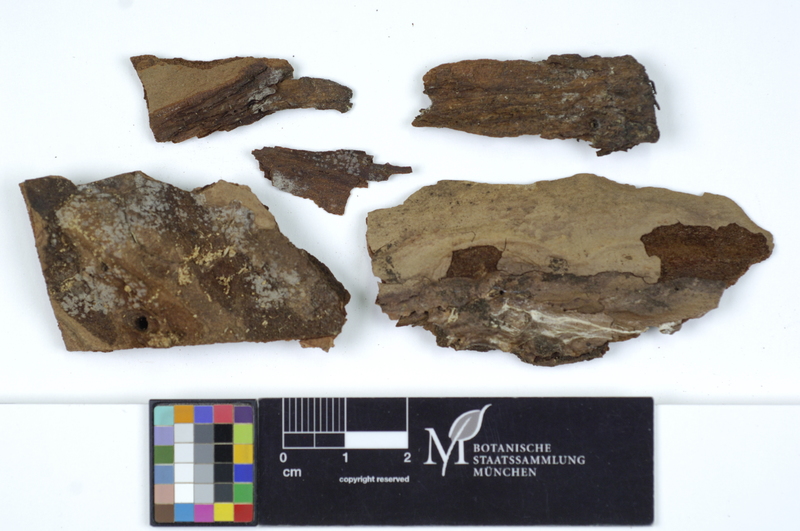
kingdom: Fungi
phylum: Ascomycota
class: Leotiomycetes
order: Helotiales
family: Ascocorticiaceae
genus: Ascocorticium
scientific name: Ascocorticium anomalum
